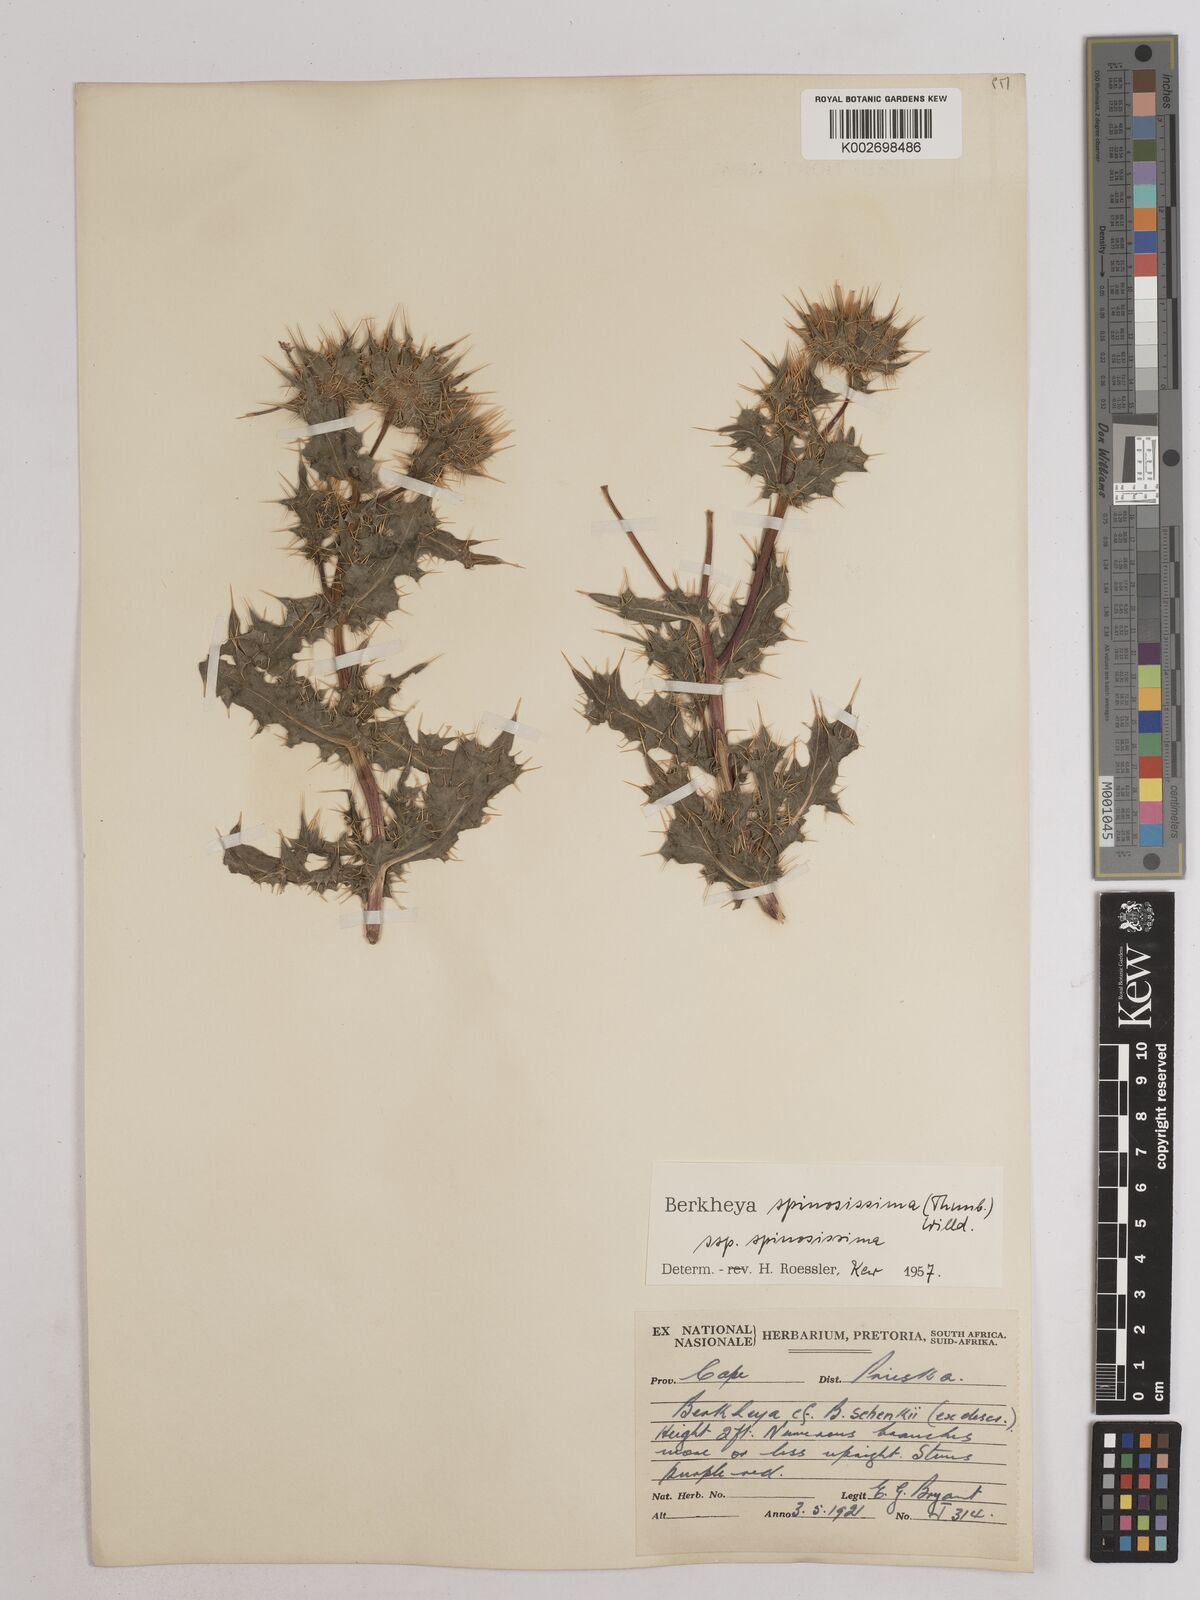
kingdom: Plantae
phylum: Tracheophyta
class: Magnoliopsida
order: Asterales
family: Asteraceae
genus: Berkheya
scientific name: Berkheya spinosissima
